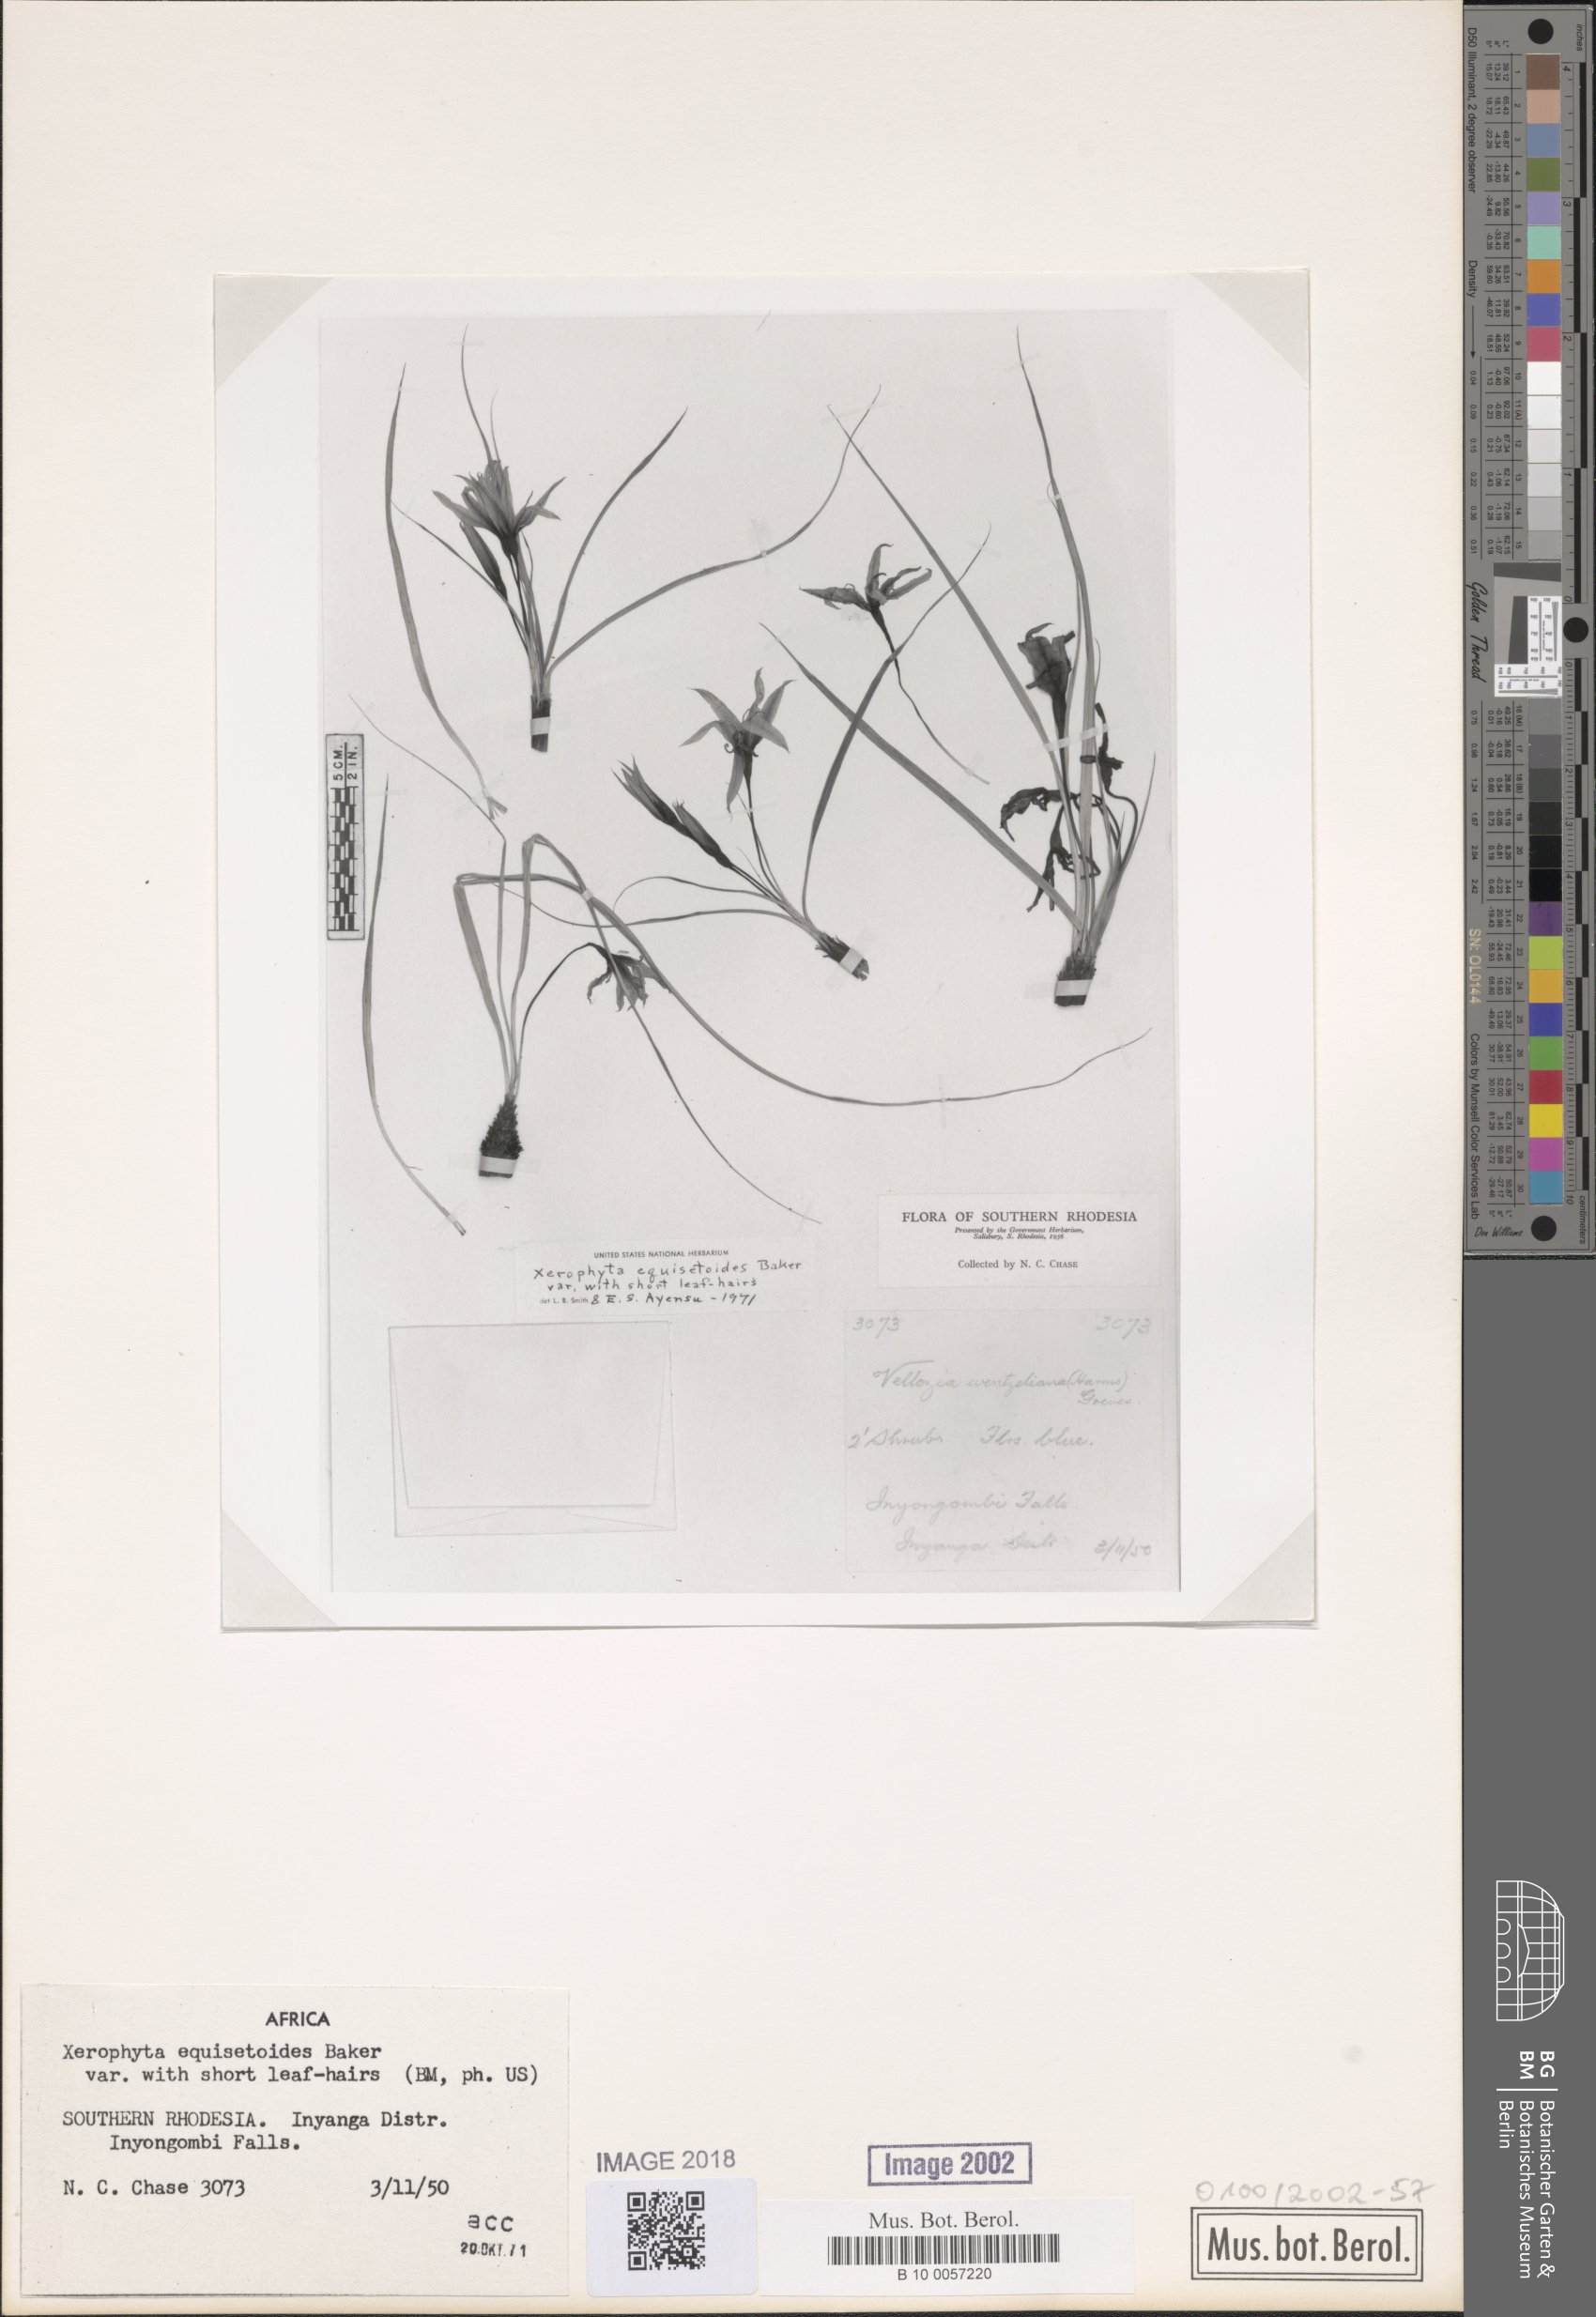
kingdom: Plantae
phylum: Tracheophyta
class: Liliopsida
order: Pandanales
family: Velloziaceae
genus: Xerophyta
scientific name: Xerophyta equisetoides
